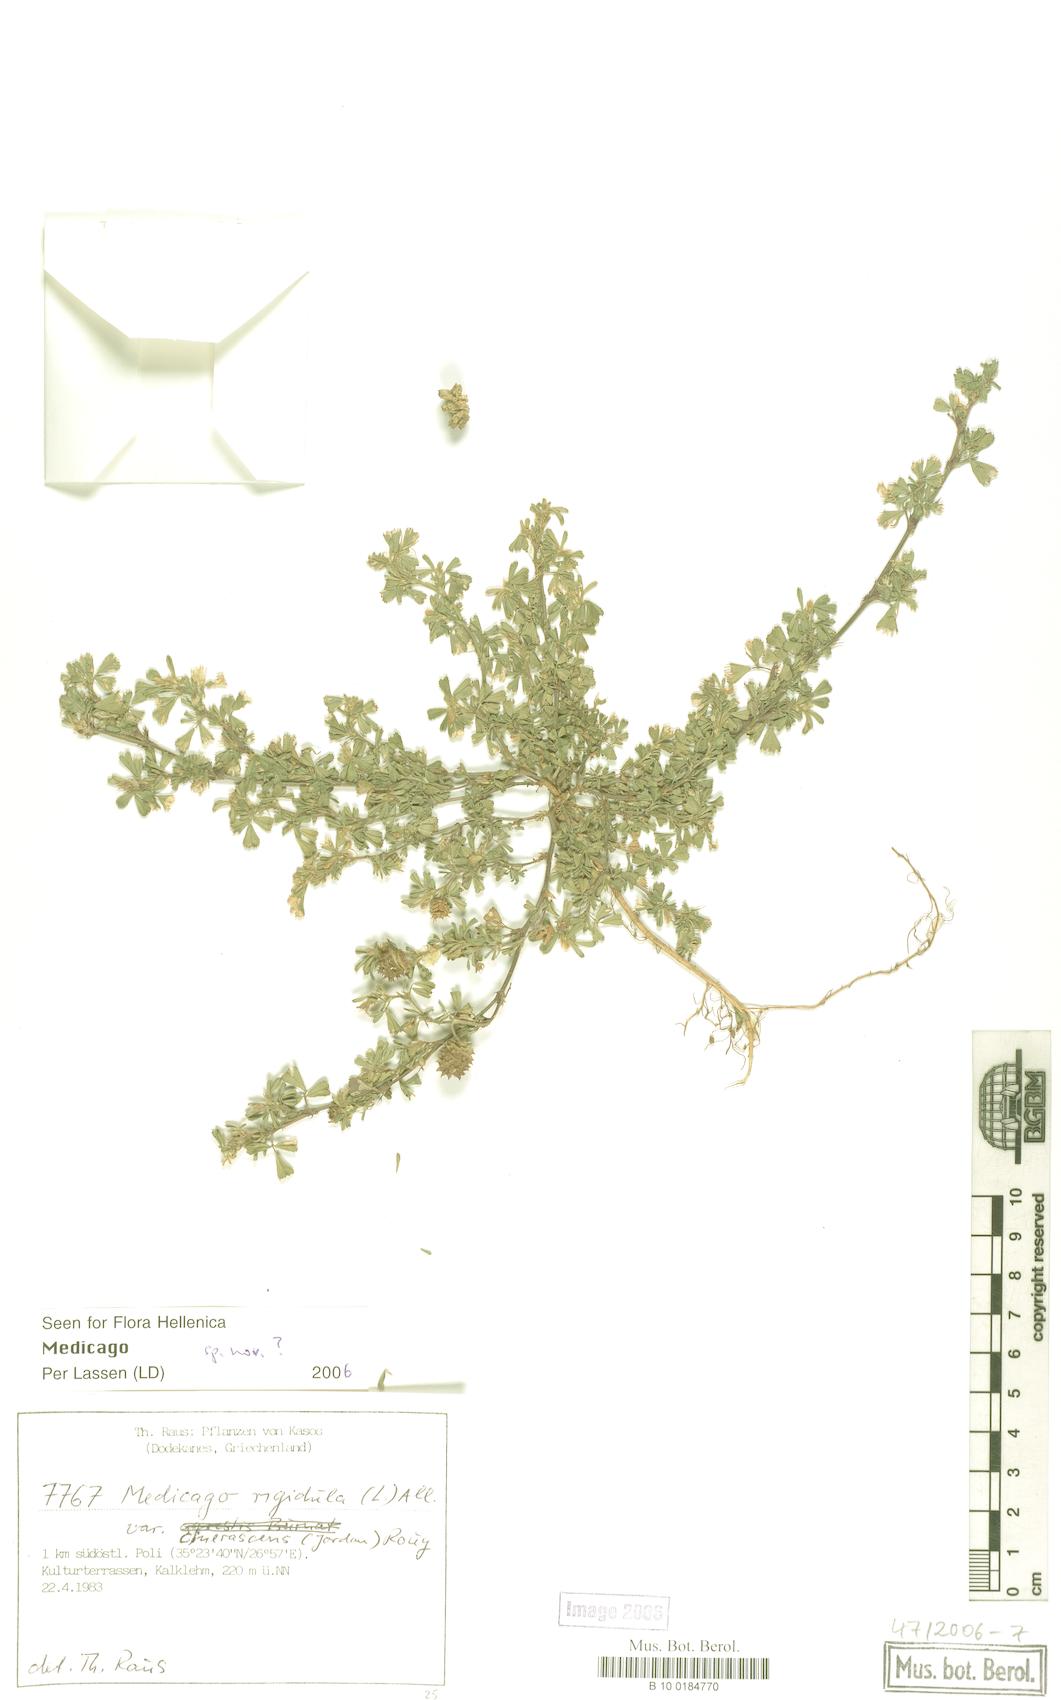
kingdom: Plantae
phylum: Tracheophyta
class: Magnoliopsida
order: Fabales
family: Fabaceae
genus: Medicago
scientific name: Medicago
